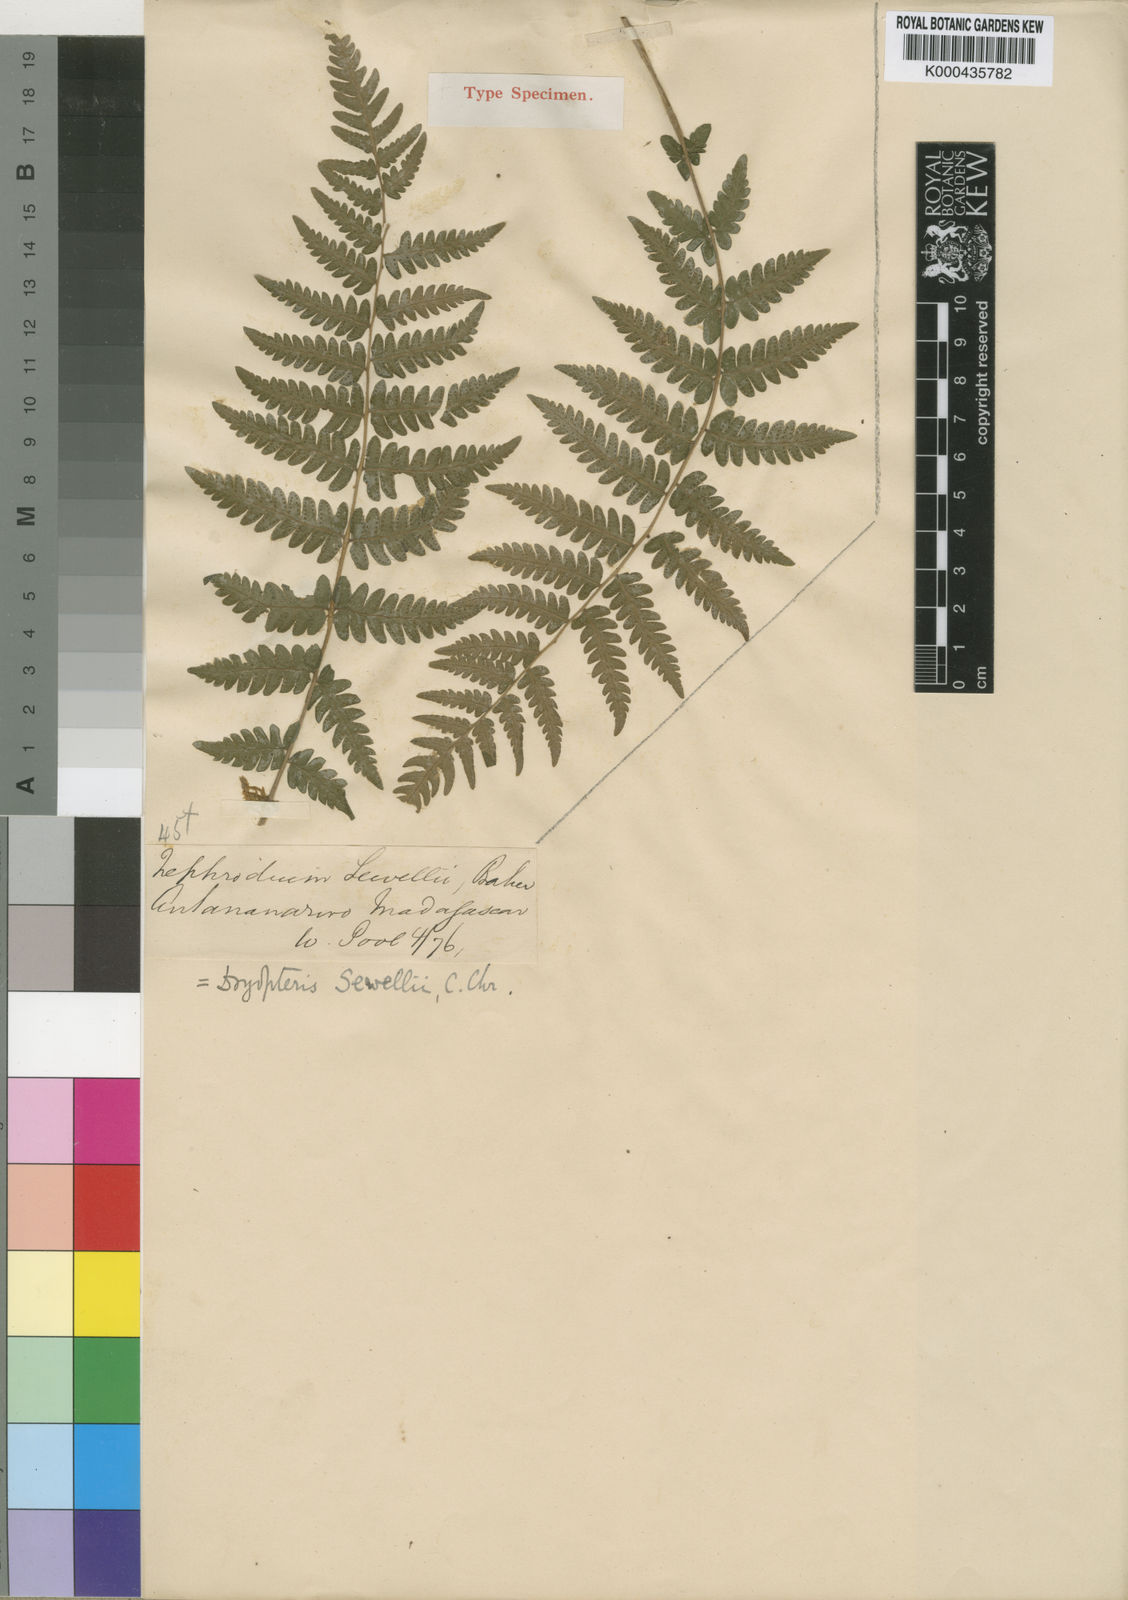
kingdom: Plantae
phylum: Tracheophyta
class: Polypodiopsida
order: Polypodiales
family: Thelypteridaceae
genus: Amauropelta
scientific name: Amauropelta bergiana
